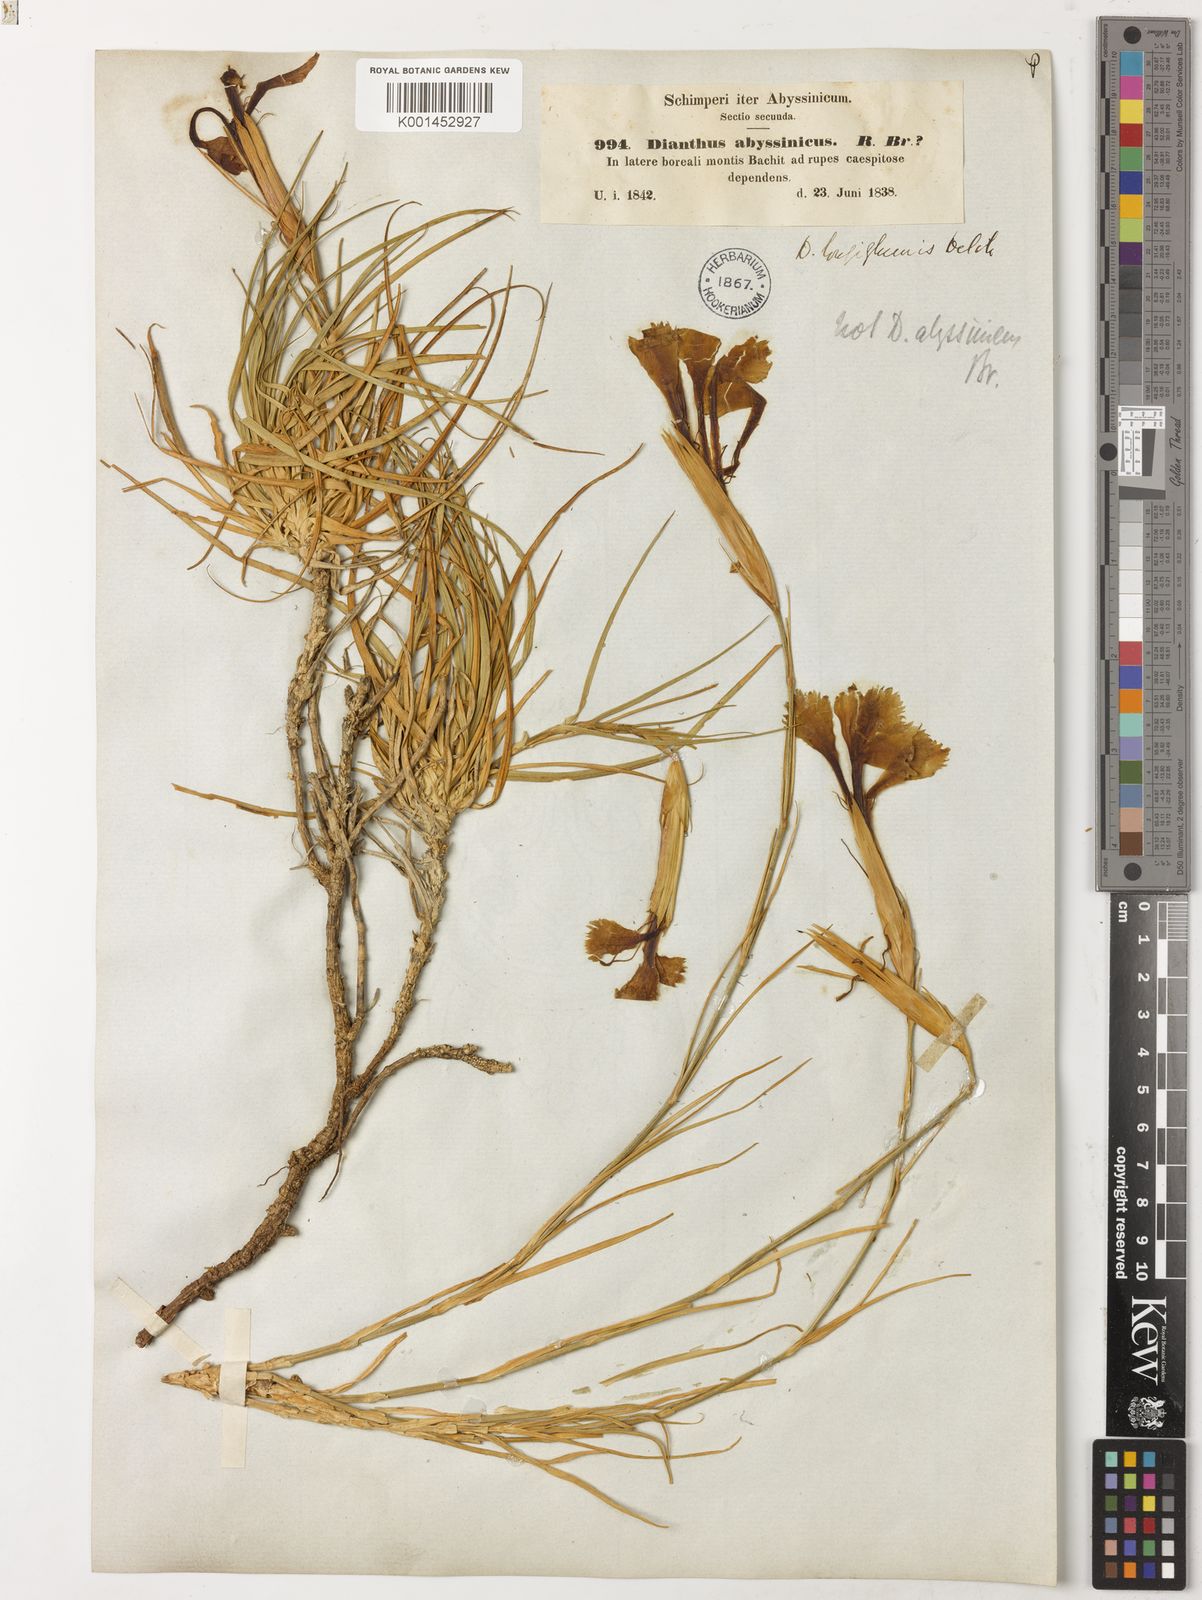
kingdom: Plantae
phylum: Tracheophyta
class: Magnoliopsida
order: Caryophyllales
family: Caryophyllaceae
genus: Dianthus
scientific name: Dianthus longiglumis
